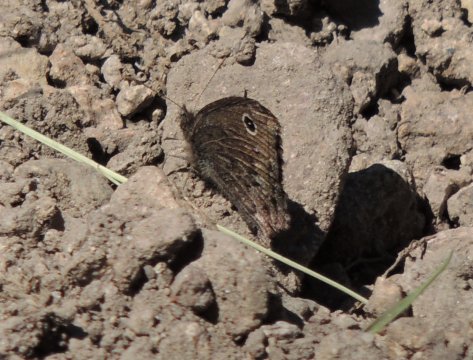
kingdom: Animalia
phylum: Arthropoda
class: Insecta
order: Lepidoptera
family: Nymphalidae
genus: Cercyonis
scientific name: Cercyonis oetus
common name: Small Wood-Nymph
